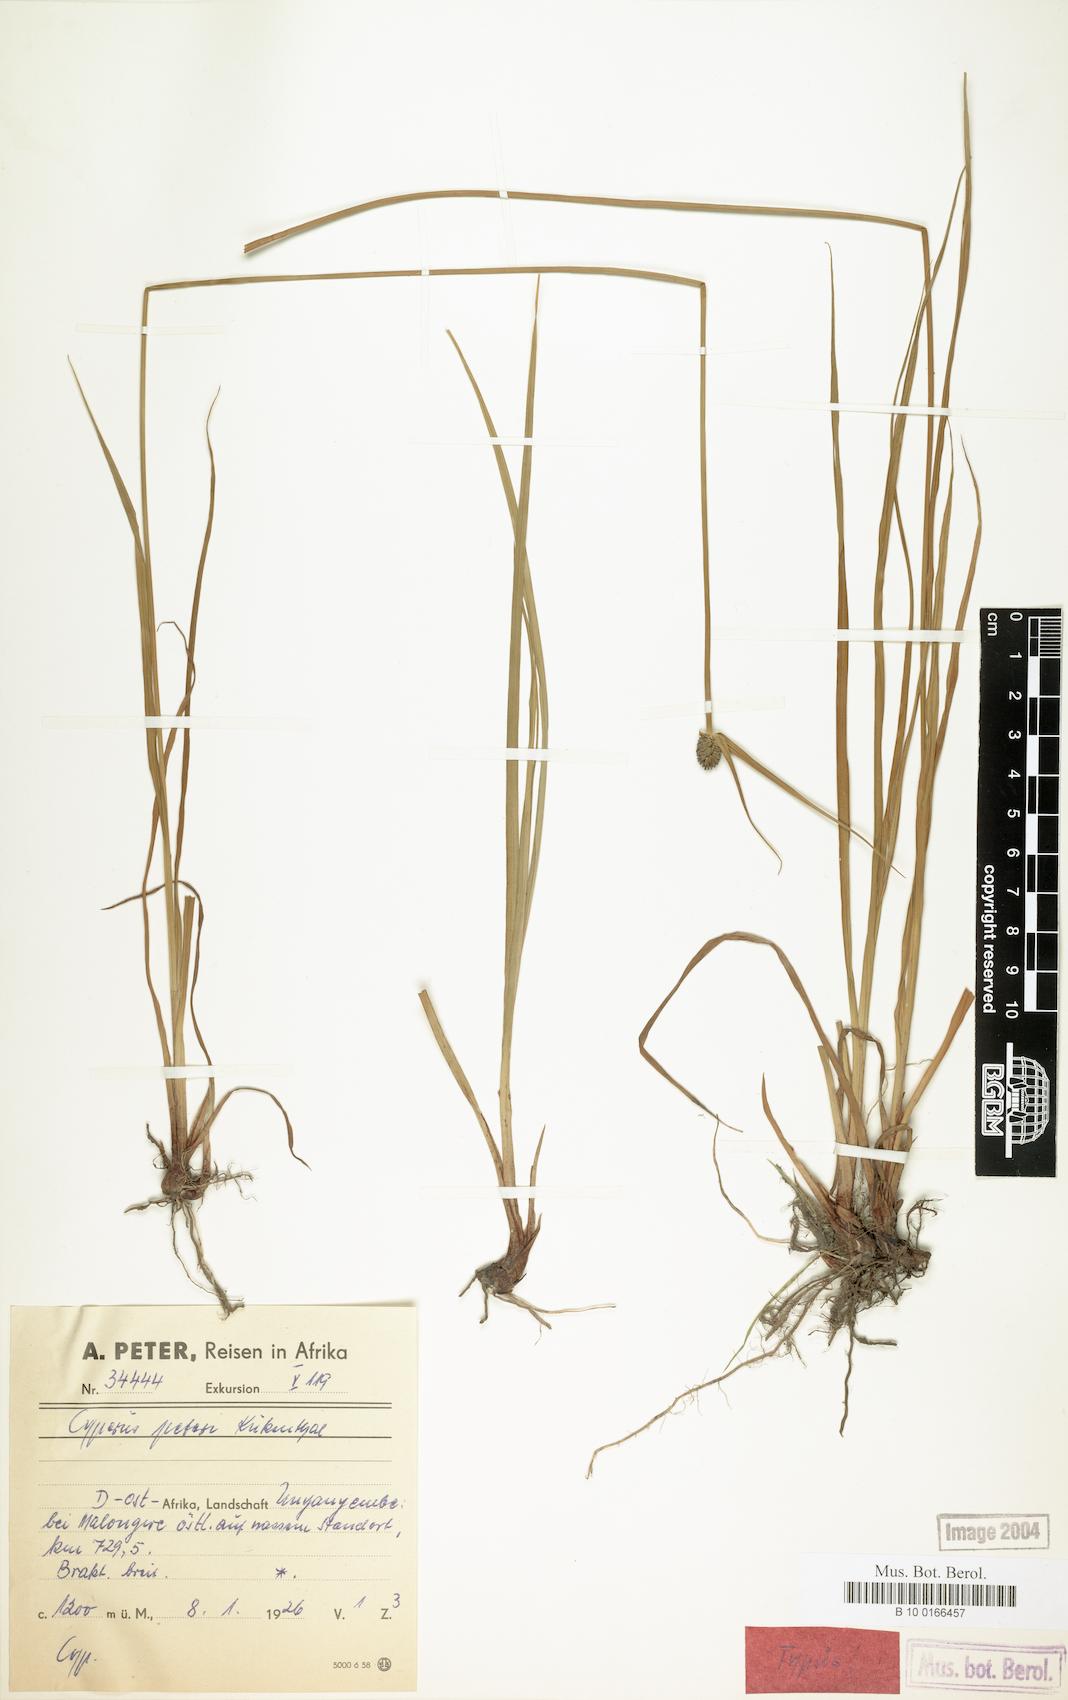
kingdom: Plantae
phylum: Tracheophyta
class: Liliopsida
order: Poales
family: Cyperaceae
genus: Cyperus
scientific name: Cyperus peteri
